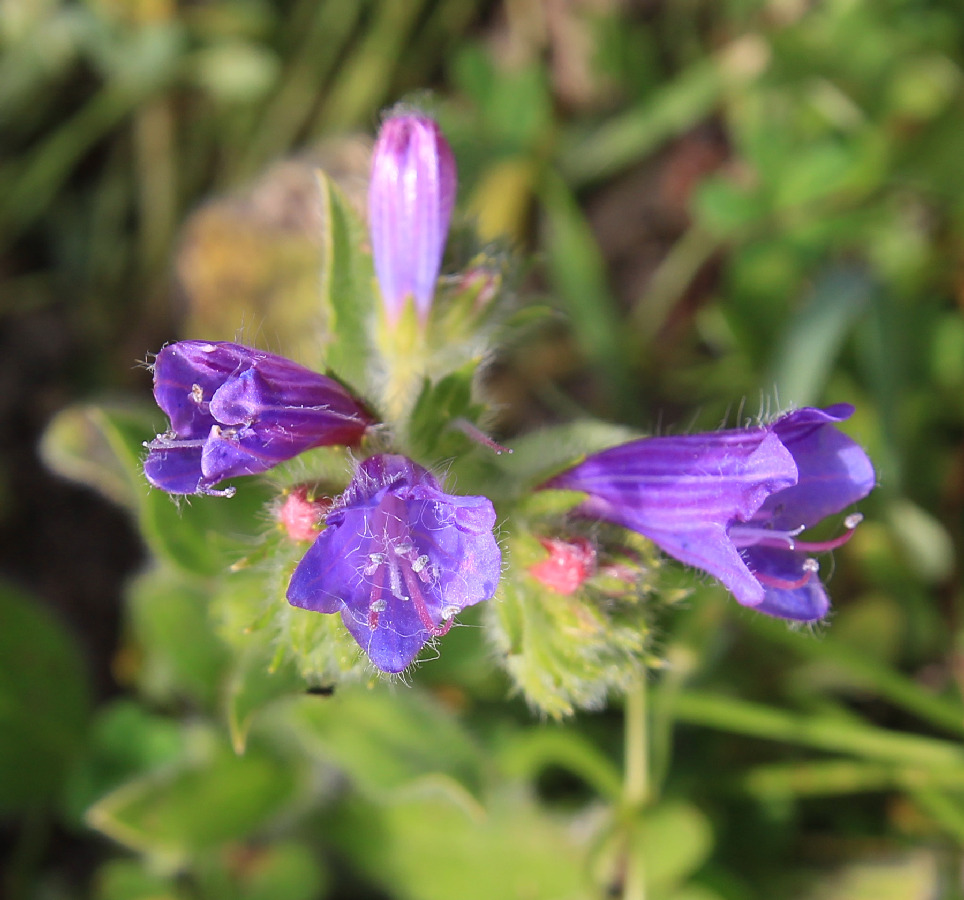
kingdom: Plantae
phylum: Tracheophyta
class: Magnoliopsida
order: Boraginales
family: Boraginaceae
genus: Echium
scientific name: Echium plantagineum
